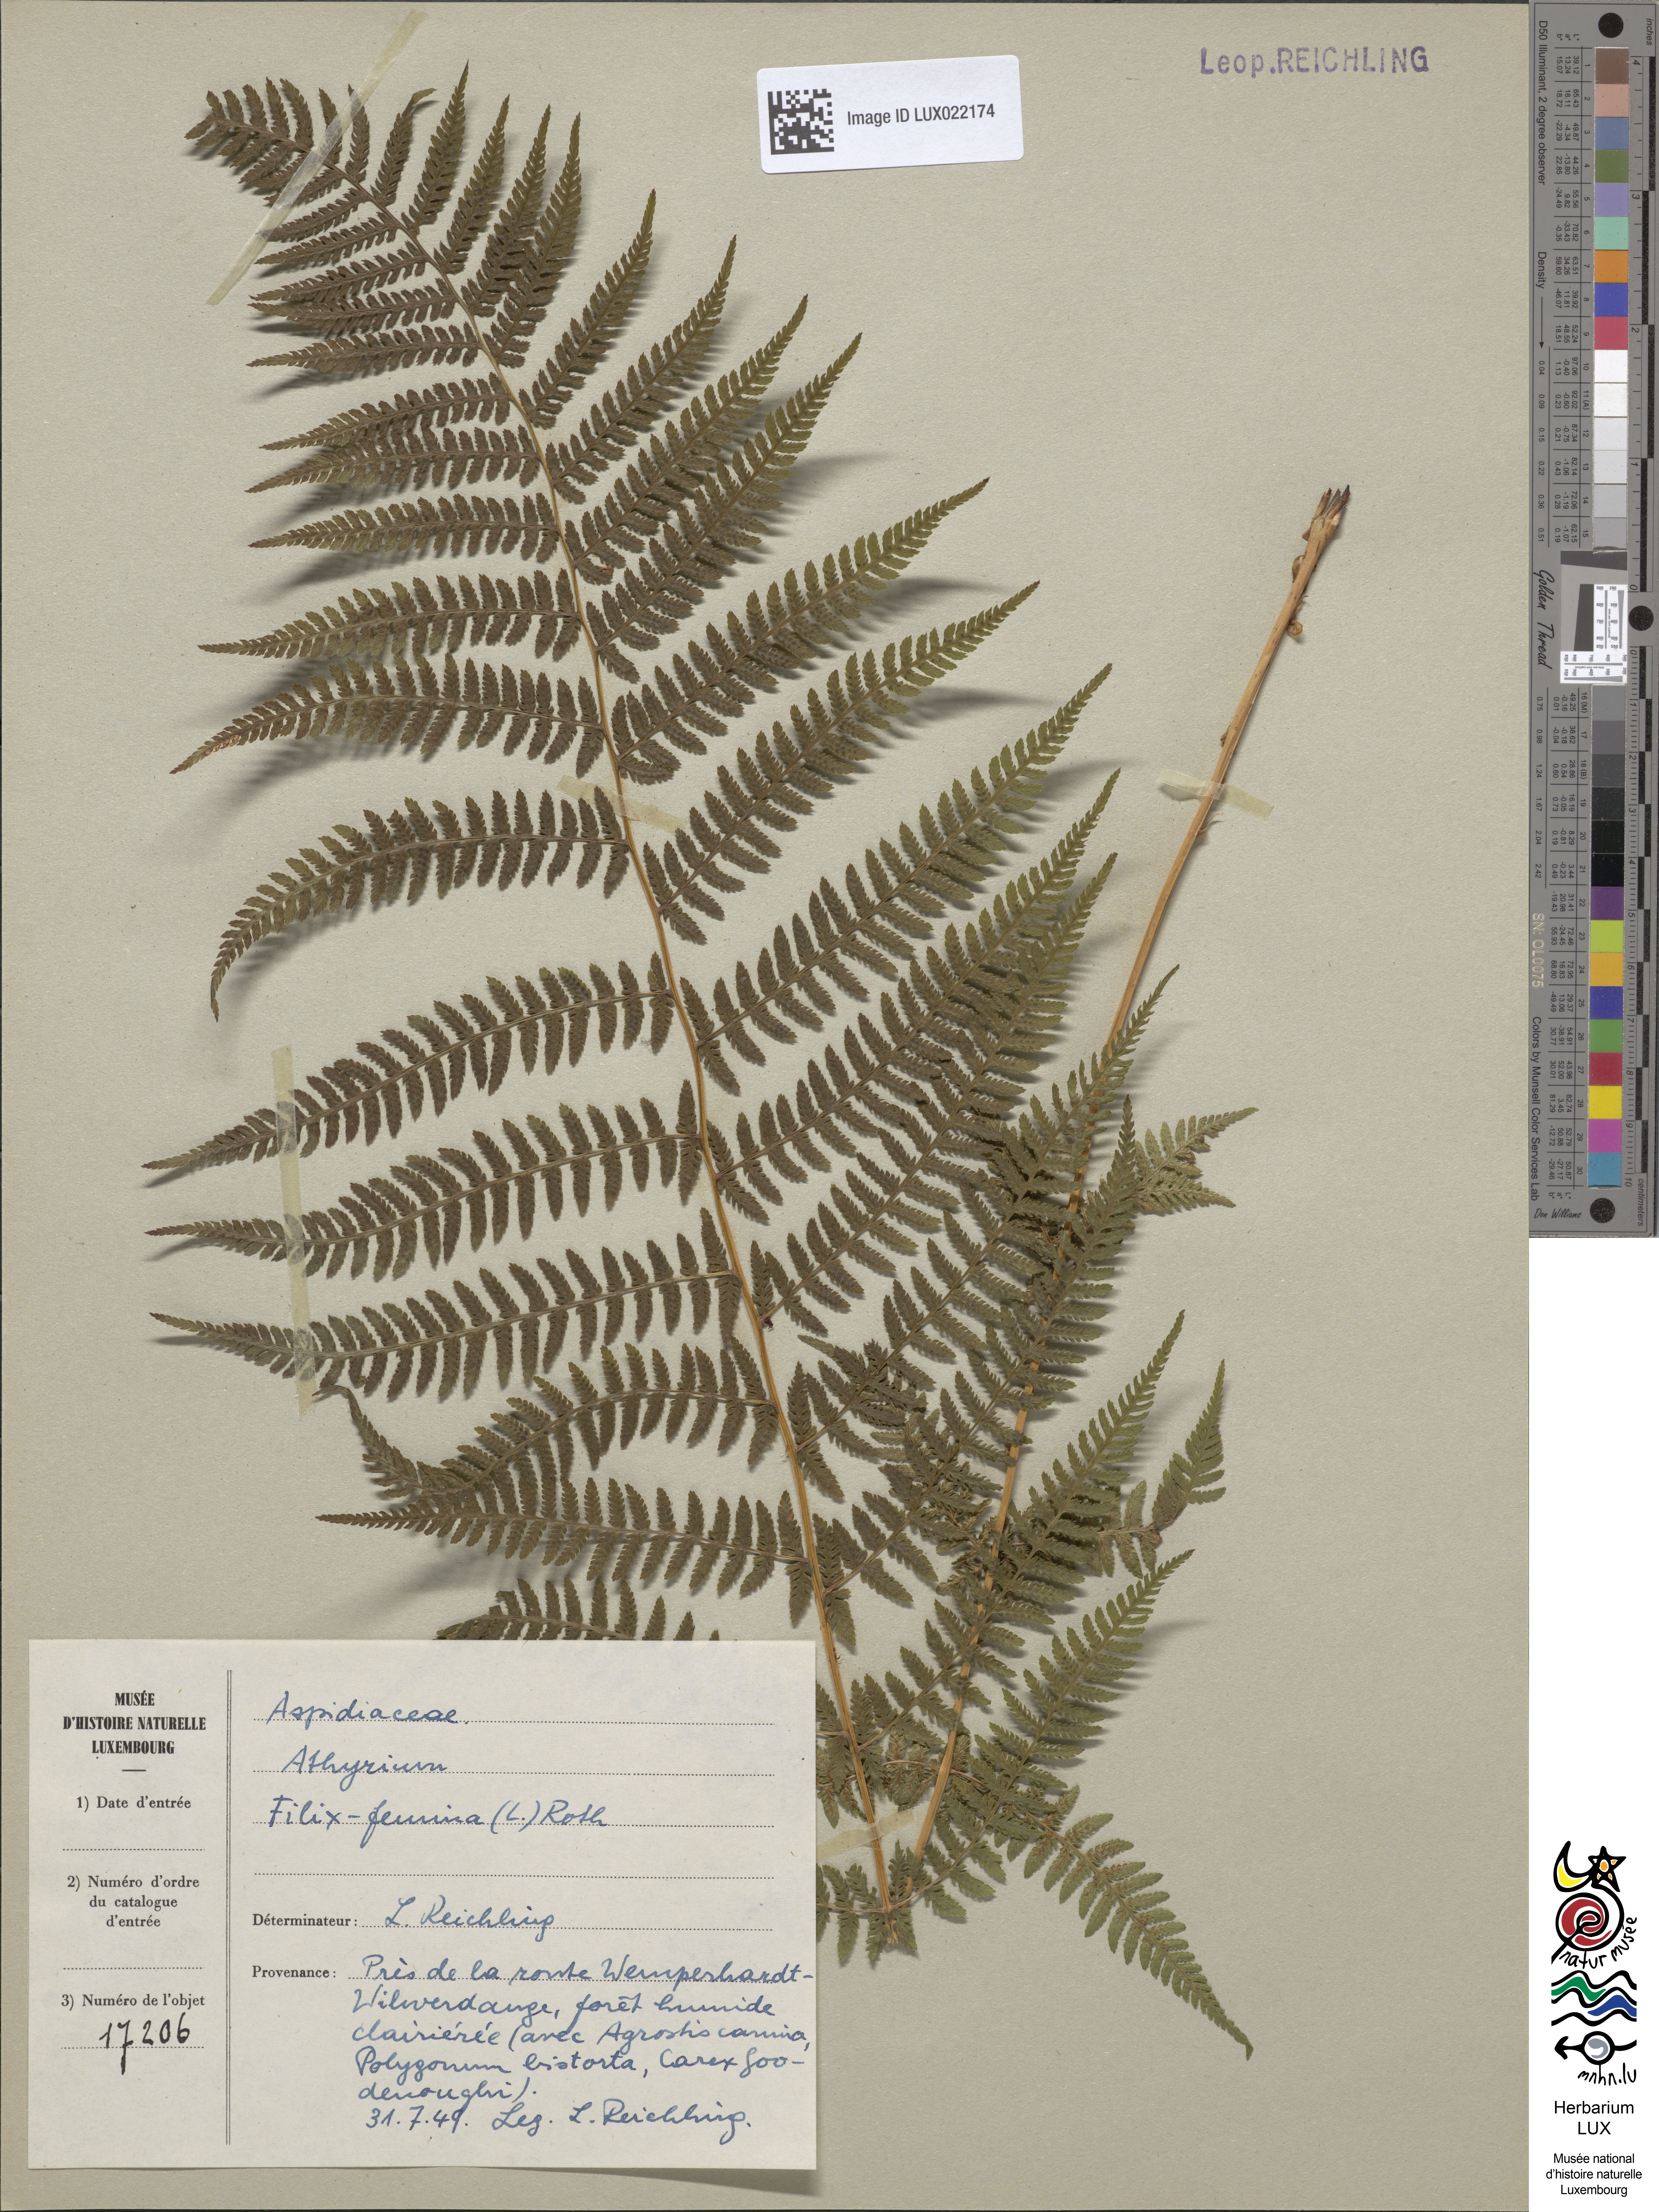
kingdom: Plantae
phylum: Tracheophyta
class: Polypodiopsida
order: Polypodiales
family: Athyriaceae
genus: Athyrium
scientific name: Athyrium filix-femina
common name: Lady fern
